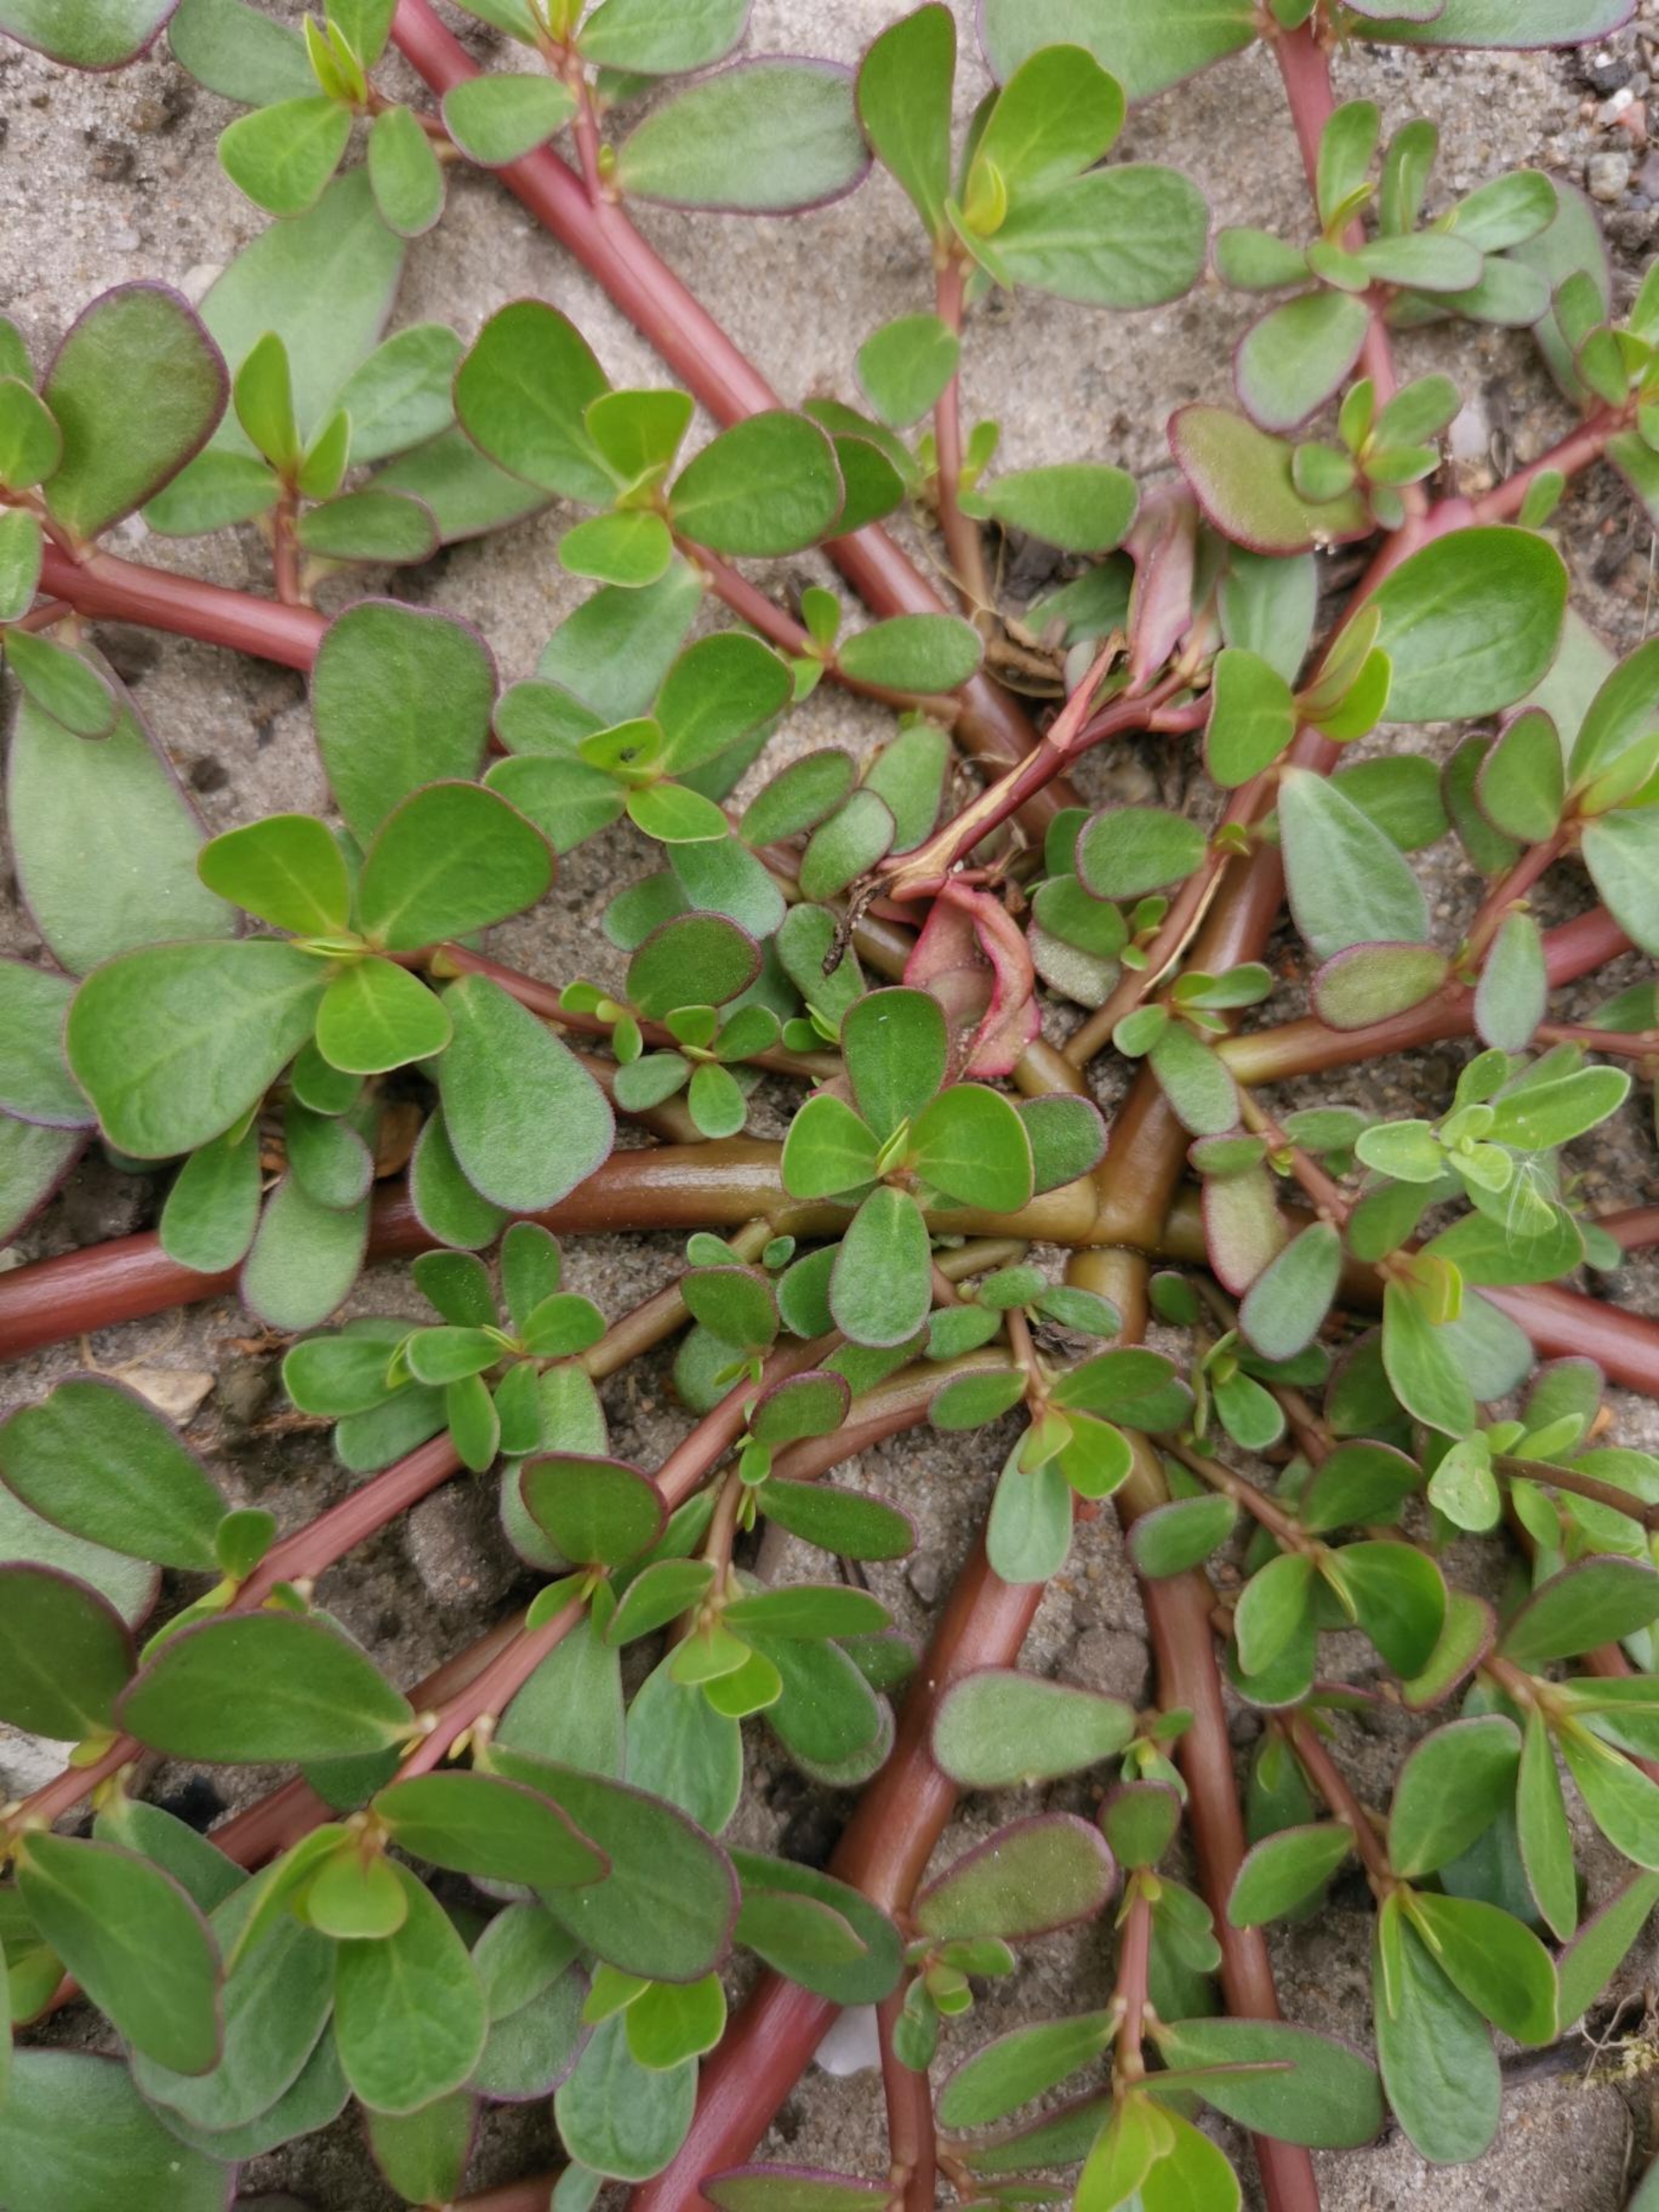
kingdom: Plantae
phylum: Tracheophyta
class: Magnoliopsida
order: Caryophyllales
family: Portulacaceae
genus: Portulaca
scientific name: Portulaca
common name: Portulakslægten
